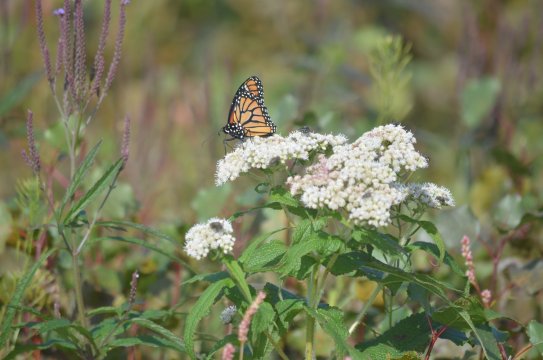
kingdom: Animalia
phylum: Arthropoda
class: Insecta
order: Lepidoptera
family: Nymphalidae
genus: Danaus
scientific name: Danaus plexippus
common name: Monarch
